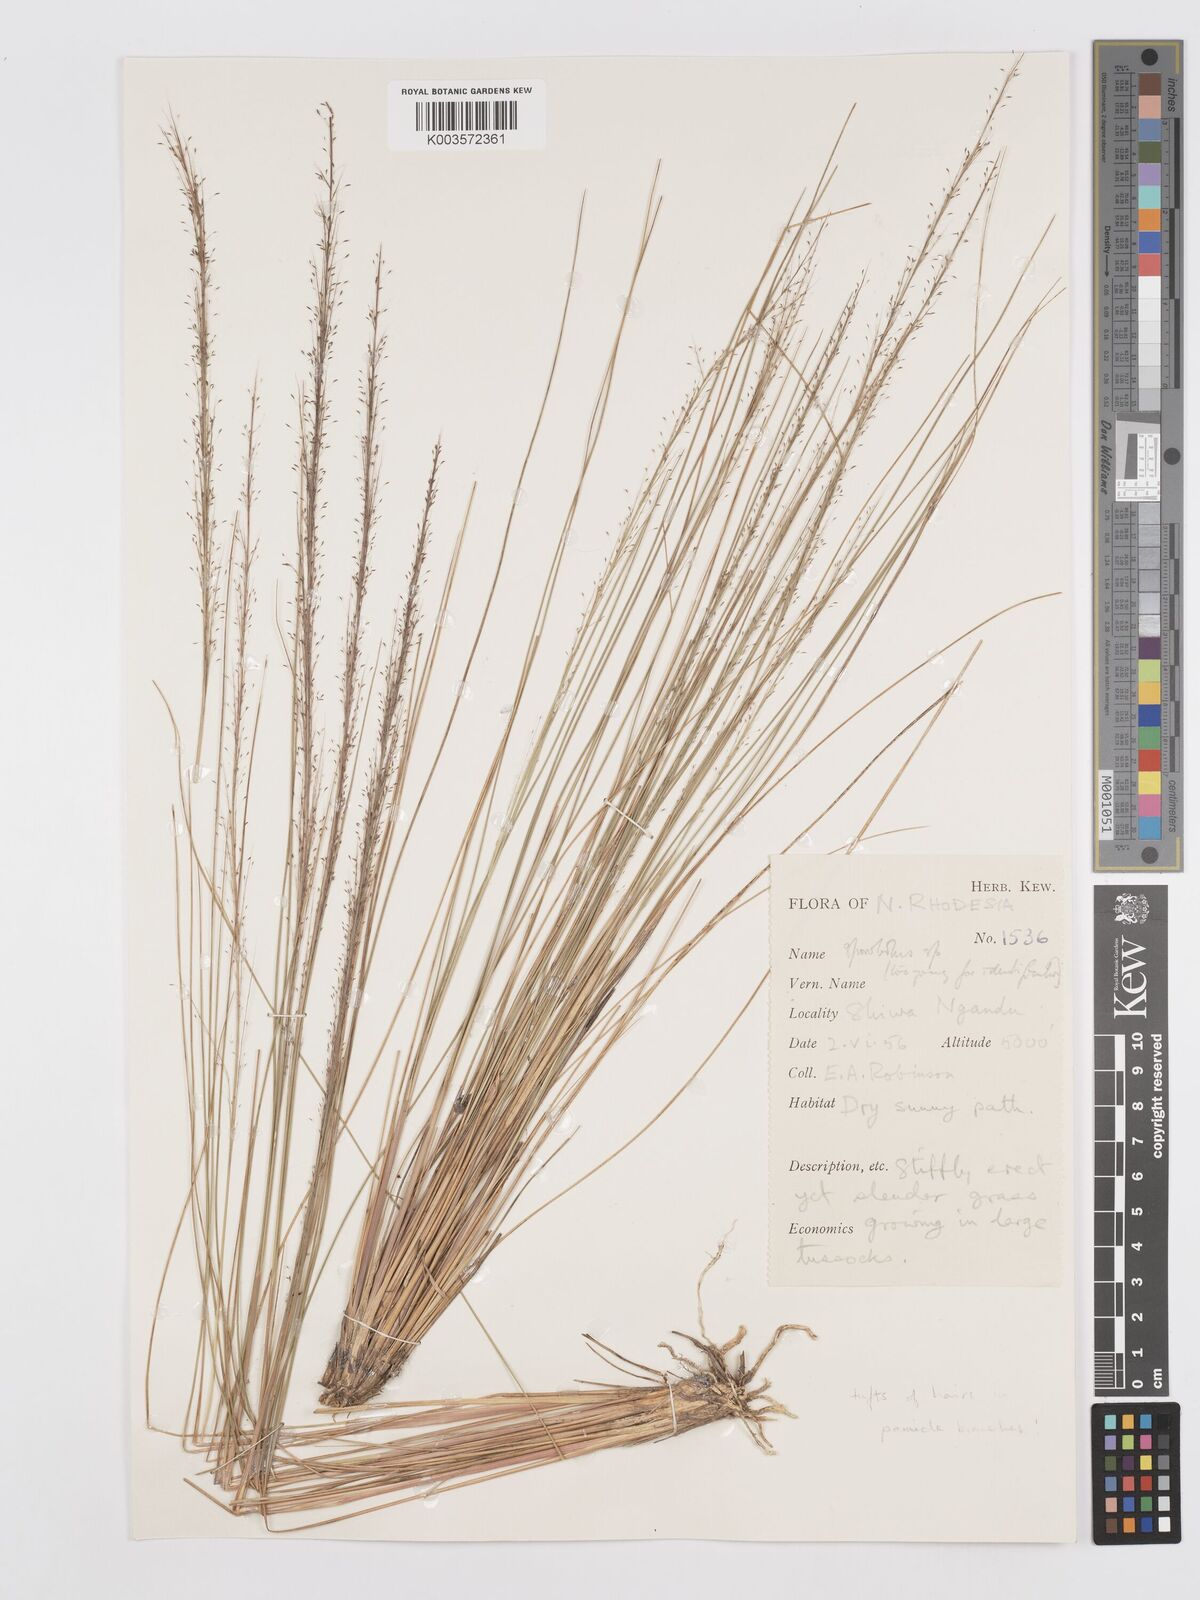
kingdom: Plantae
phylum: Tracheophyta
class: Liliopsida
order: Poales
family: Poaceae
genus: Eragrostis
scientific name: Eragrostis anacrantha
